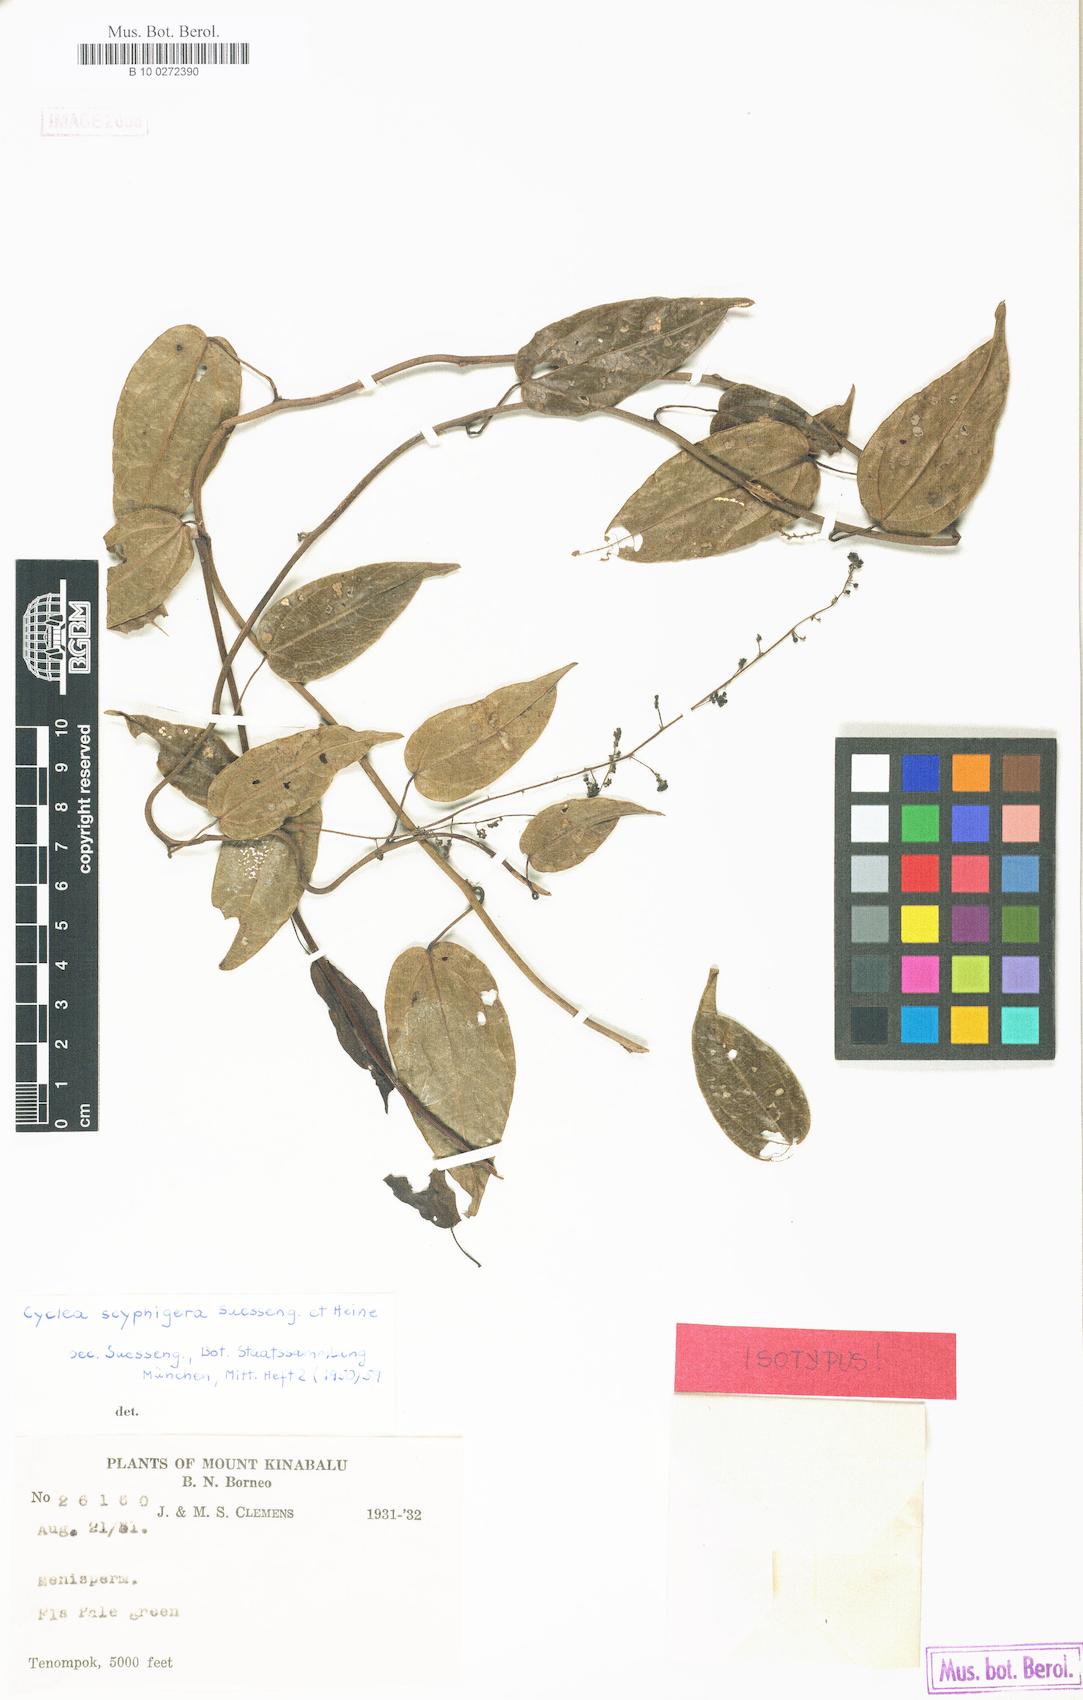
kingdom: Plantae
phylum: Tracheophyta
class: Magnoliopsida
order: Ranunculales
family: Menispermaceae
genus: Cyclea
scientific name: Cyclea elegans
